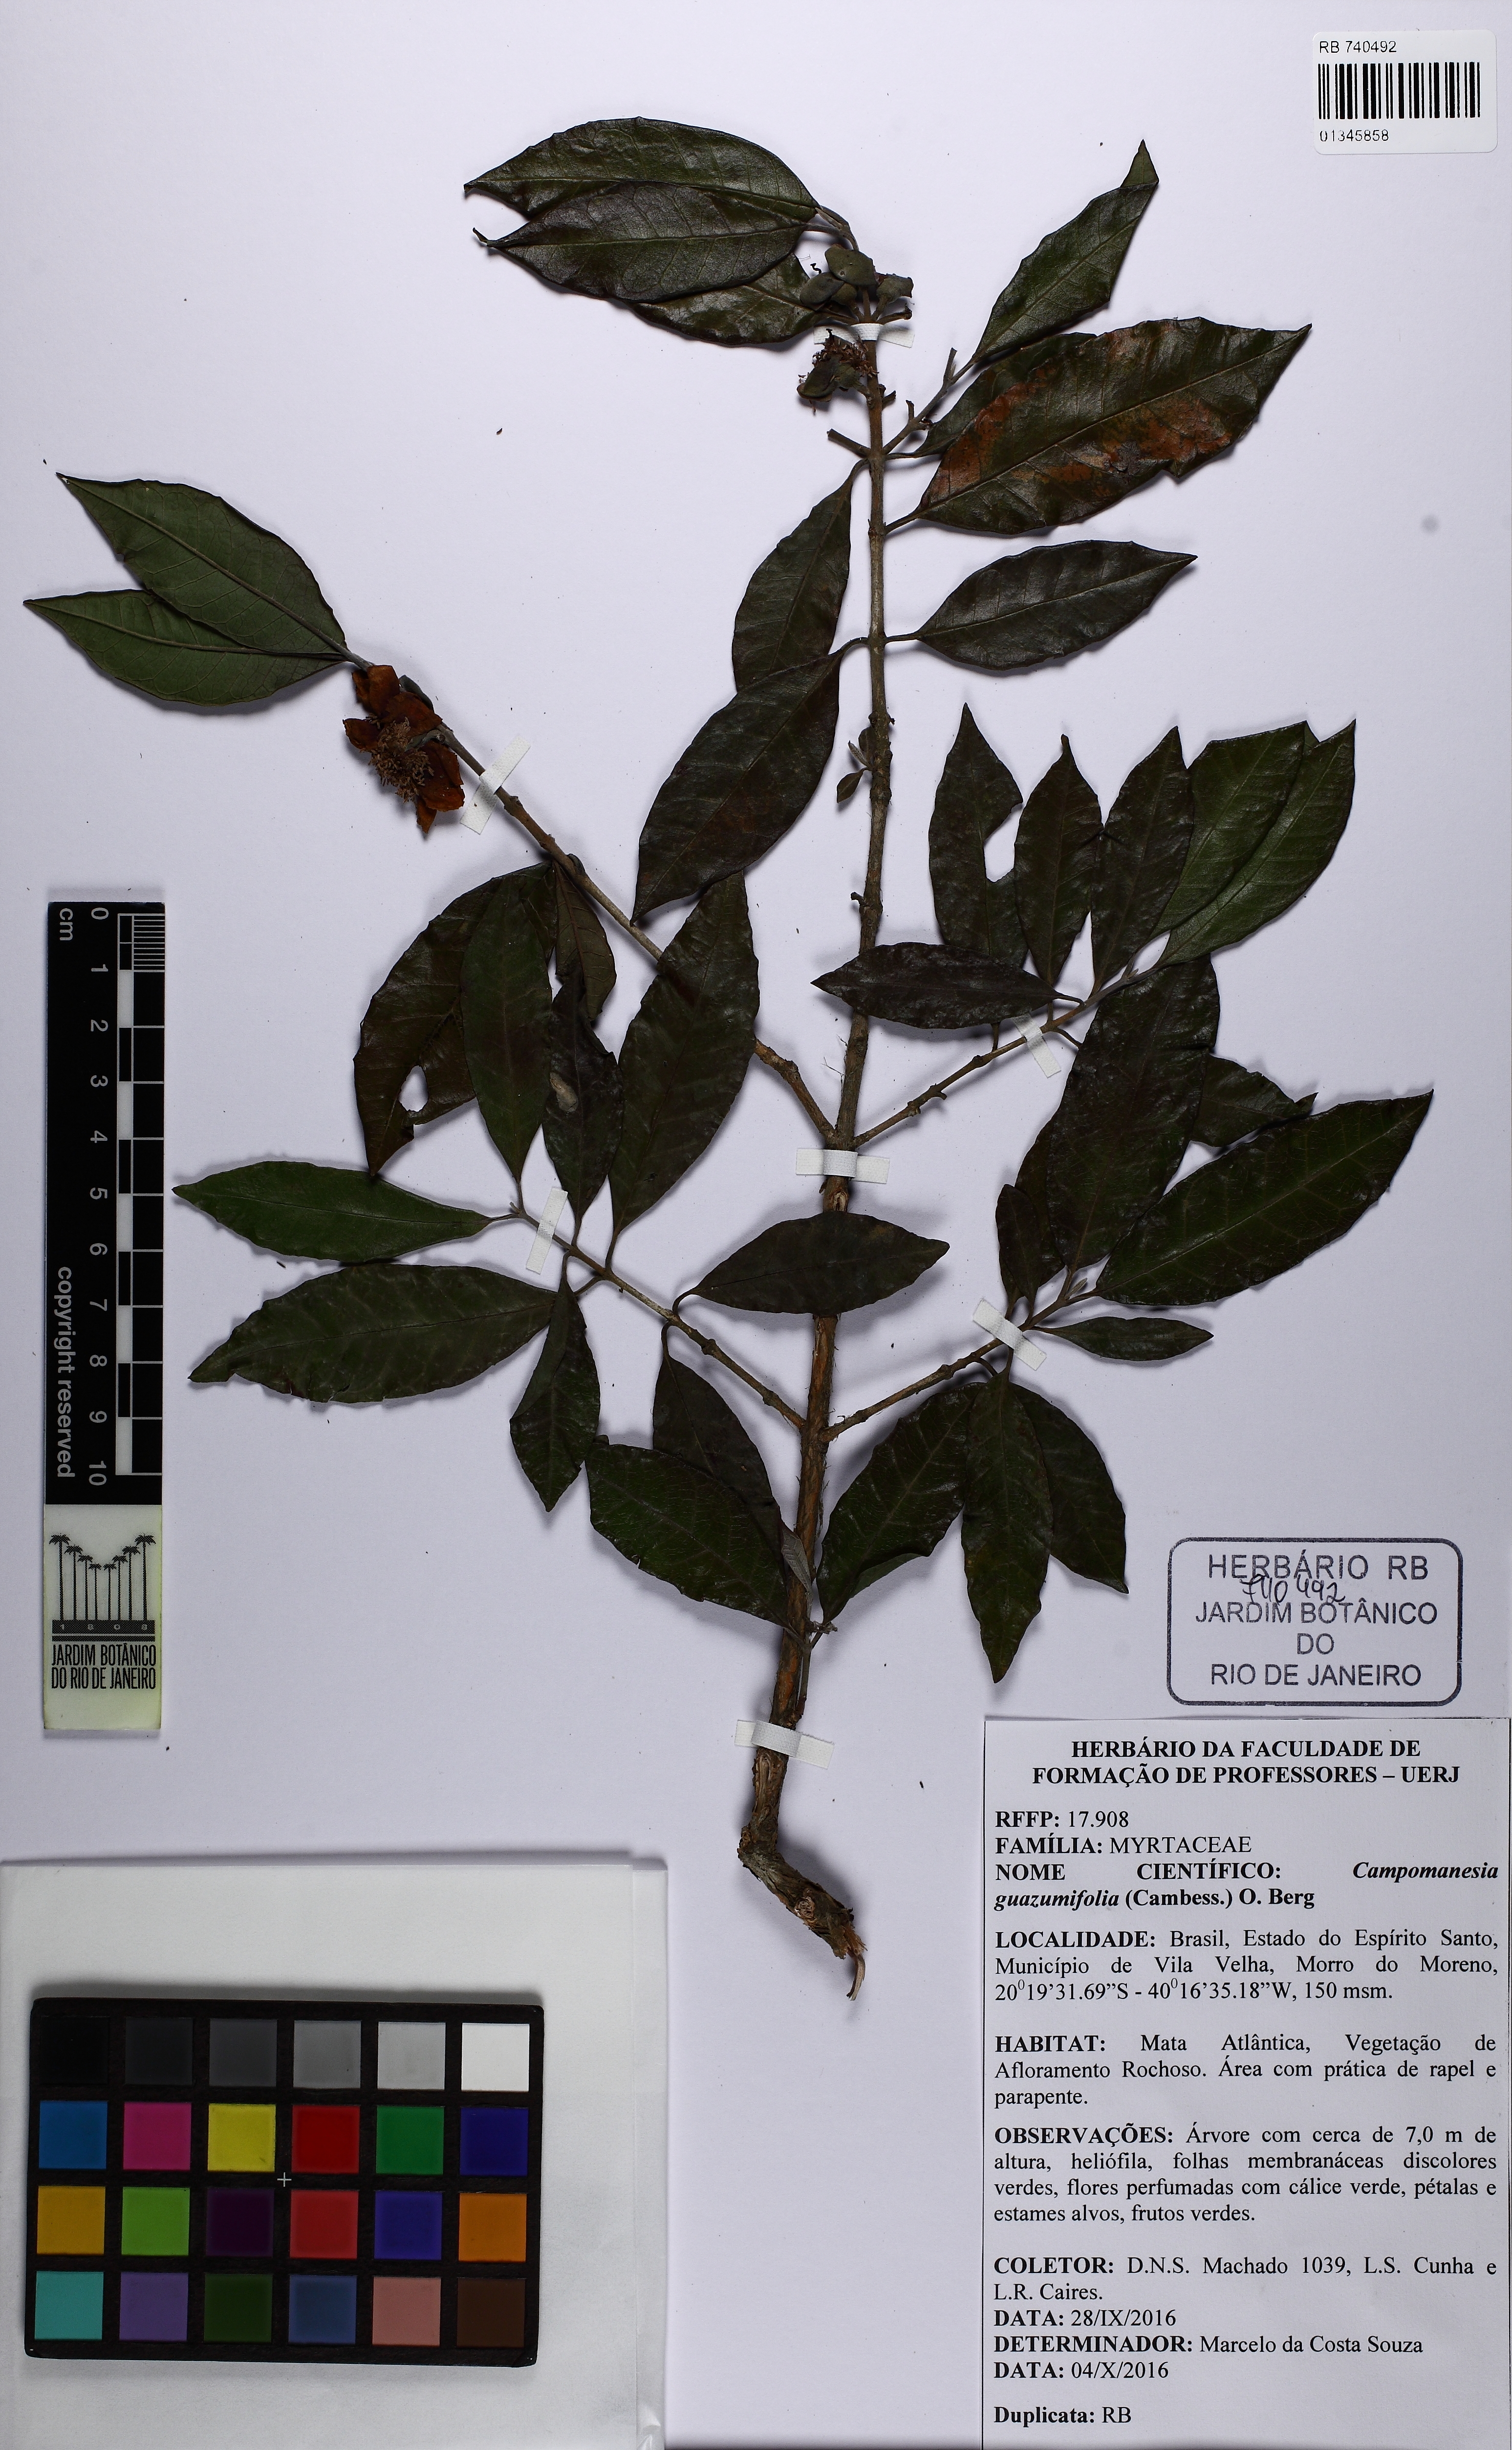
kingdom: Plantae
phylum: Tracheophyta
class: Magnoliopsida
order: Myrtales
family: Myrtaceae
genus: Campomanesia
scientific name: Campomanesia guazumifolia
